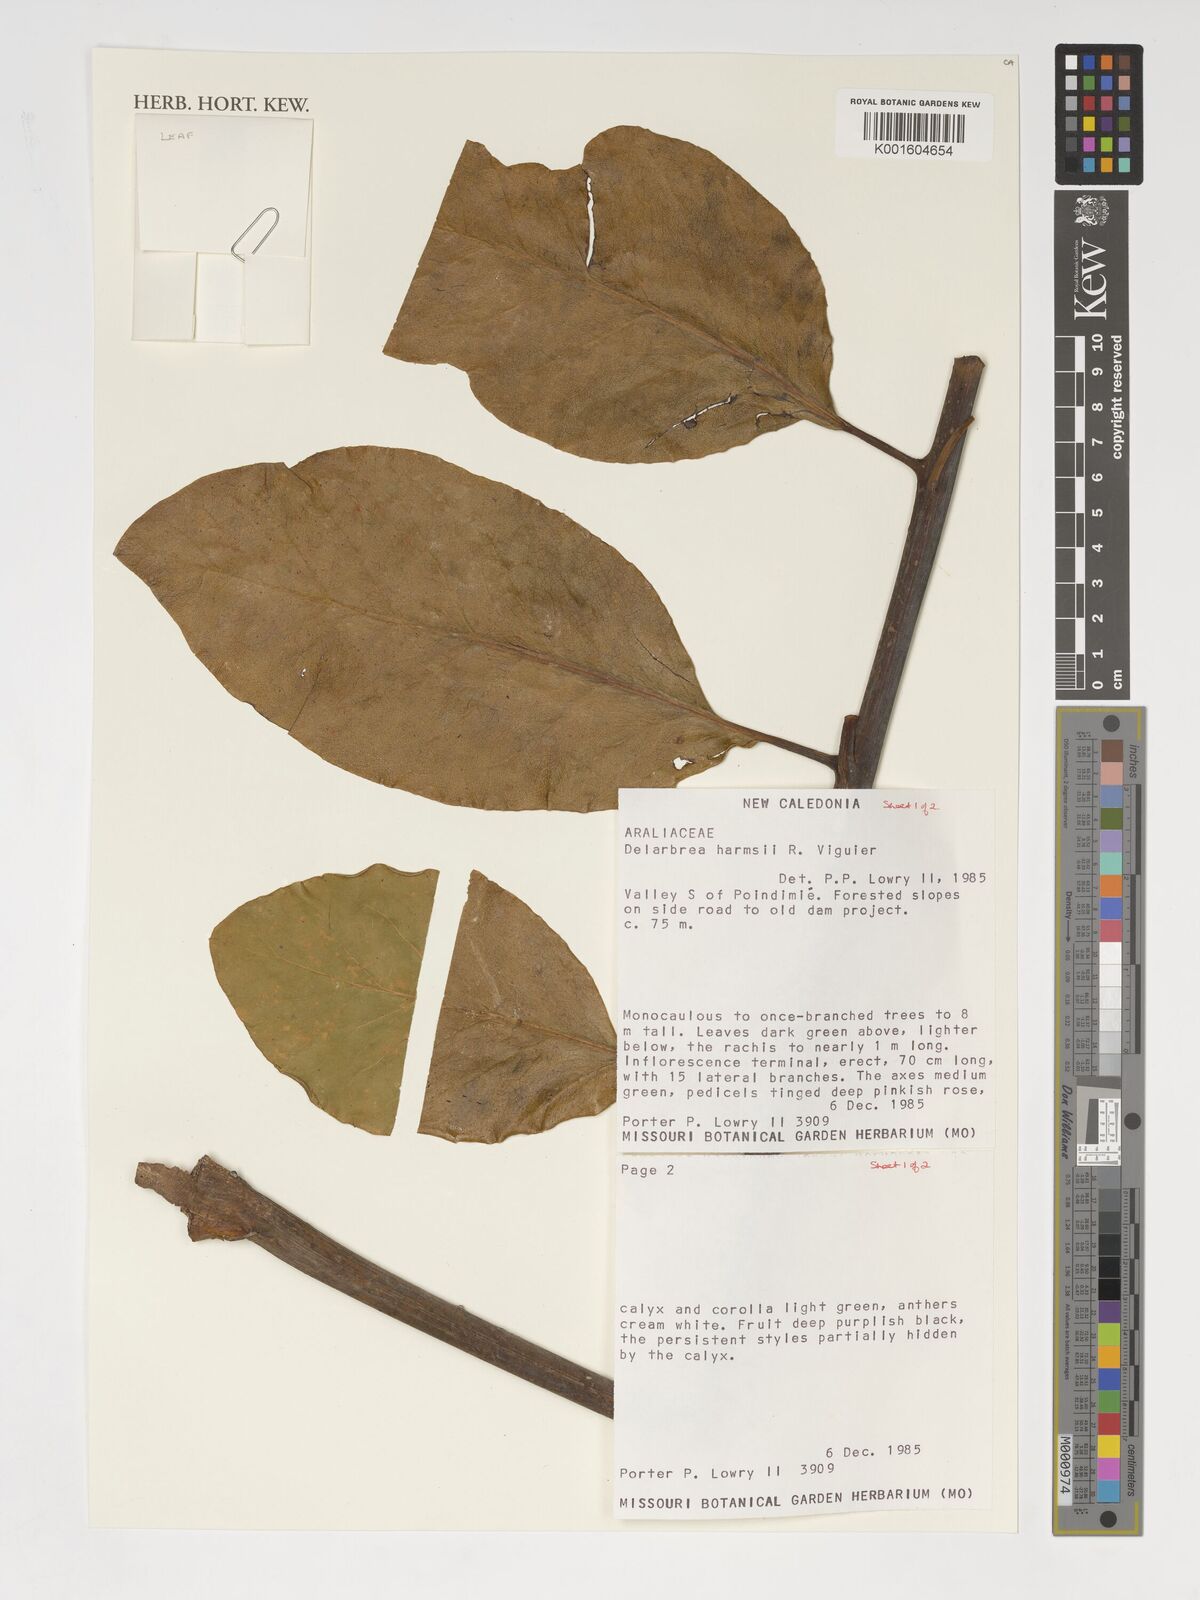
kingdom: Plantae
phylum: Tracheophyta
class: Magnoliopsida
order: Apiales
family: Myodocarpaceae
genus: Delarbrea
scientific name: Delarbrea harmsii
